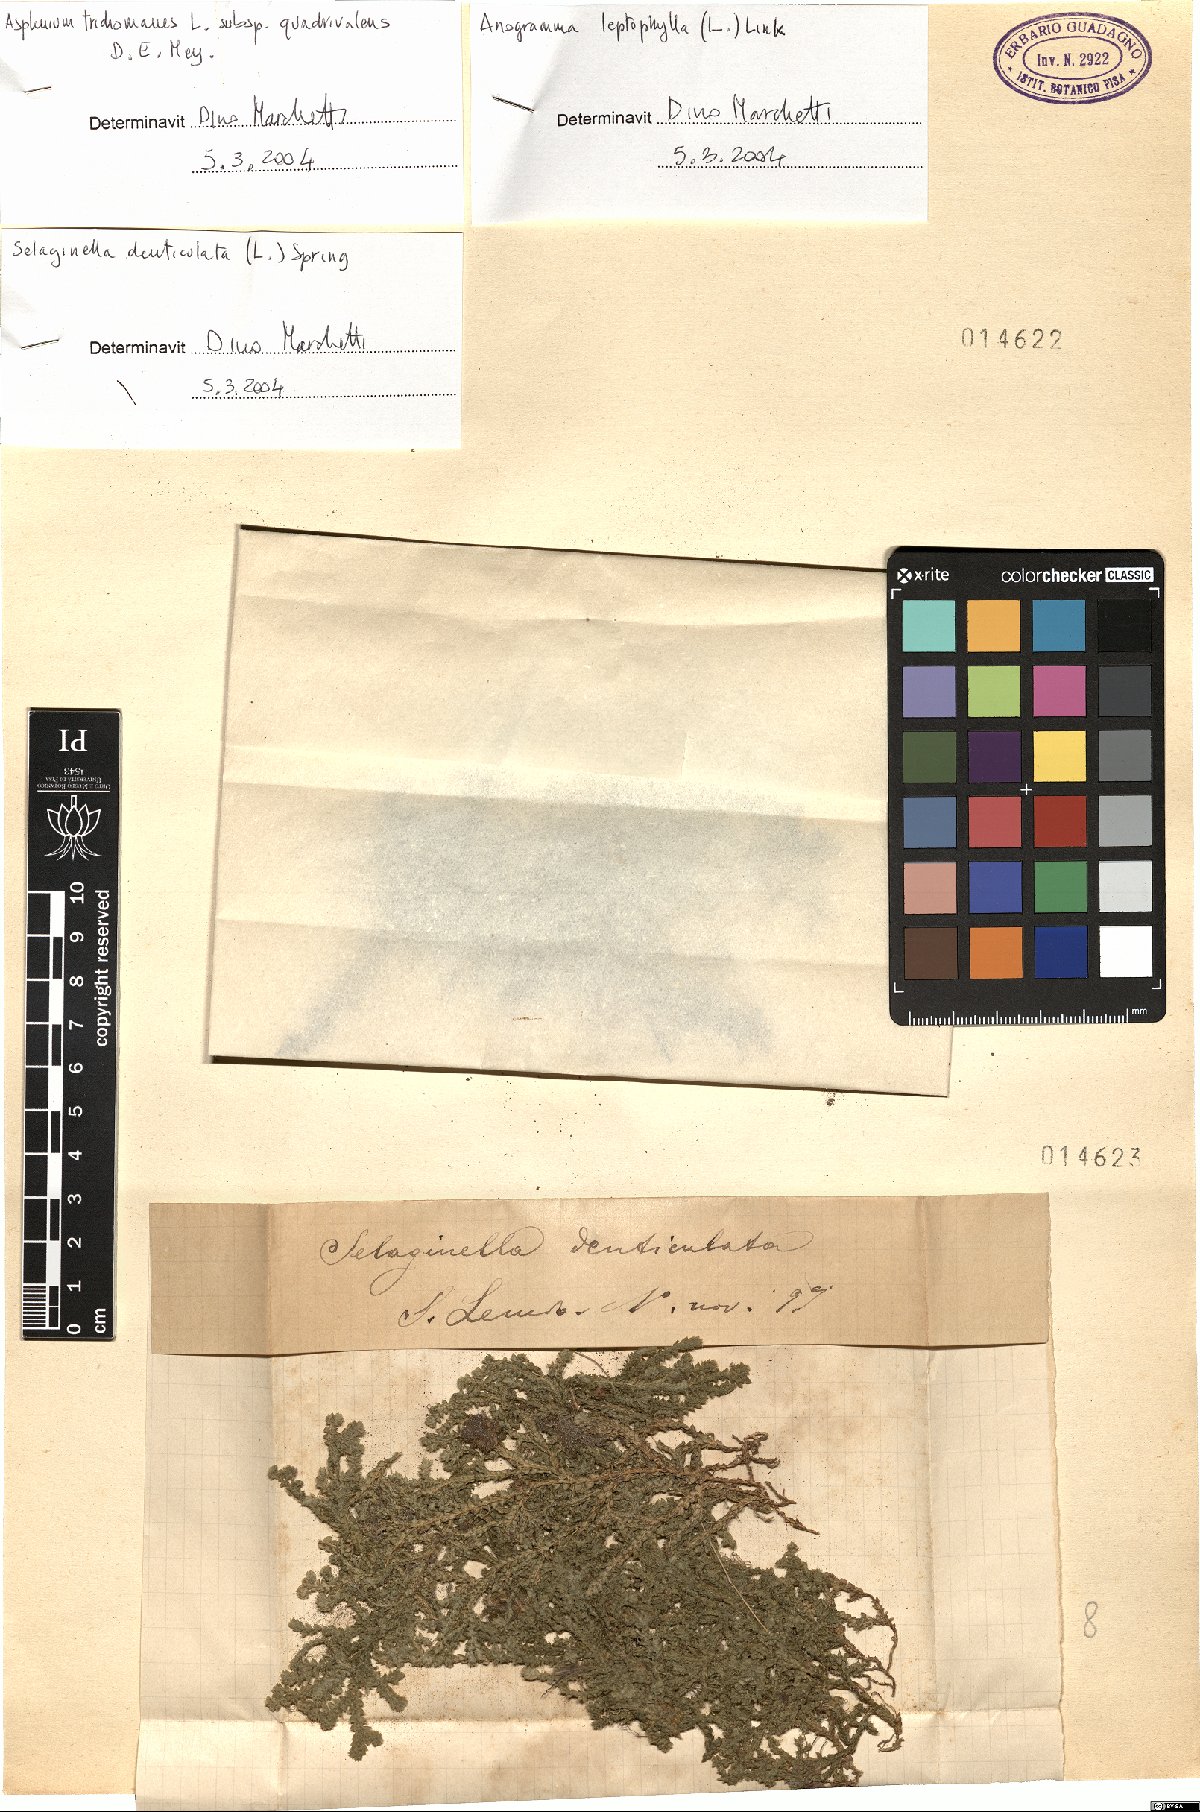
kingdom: Plantae
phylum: Tracheophyta
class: Lycopodiopsida
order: Selaginellales
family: Selaginellaceae
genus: Selaginella
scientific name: Selaginella denticulata
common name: Toothed-leaved clubmoss
